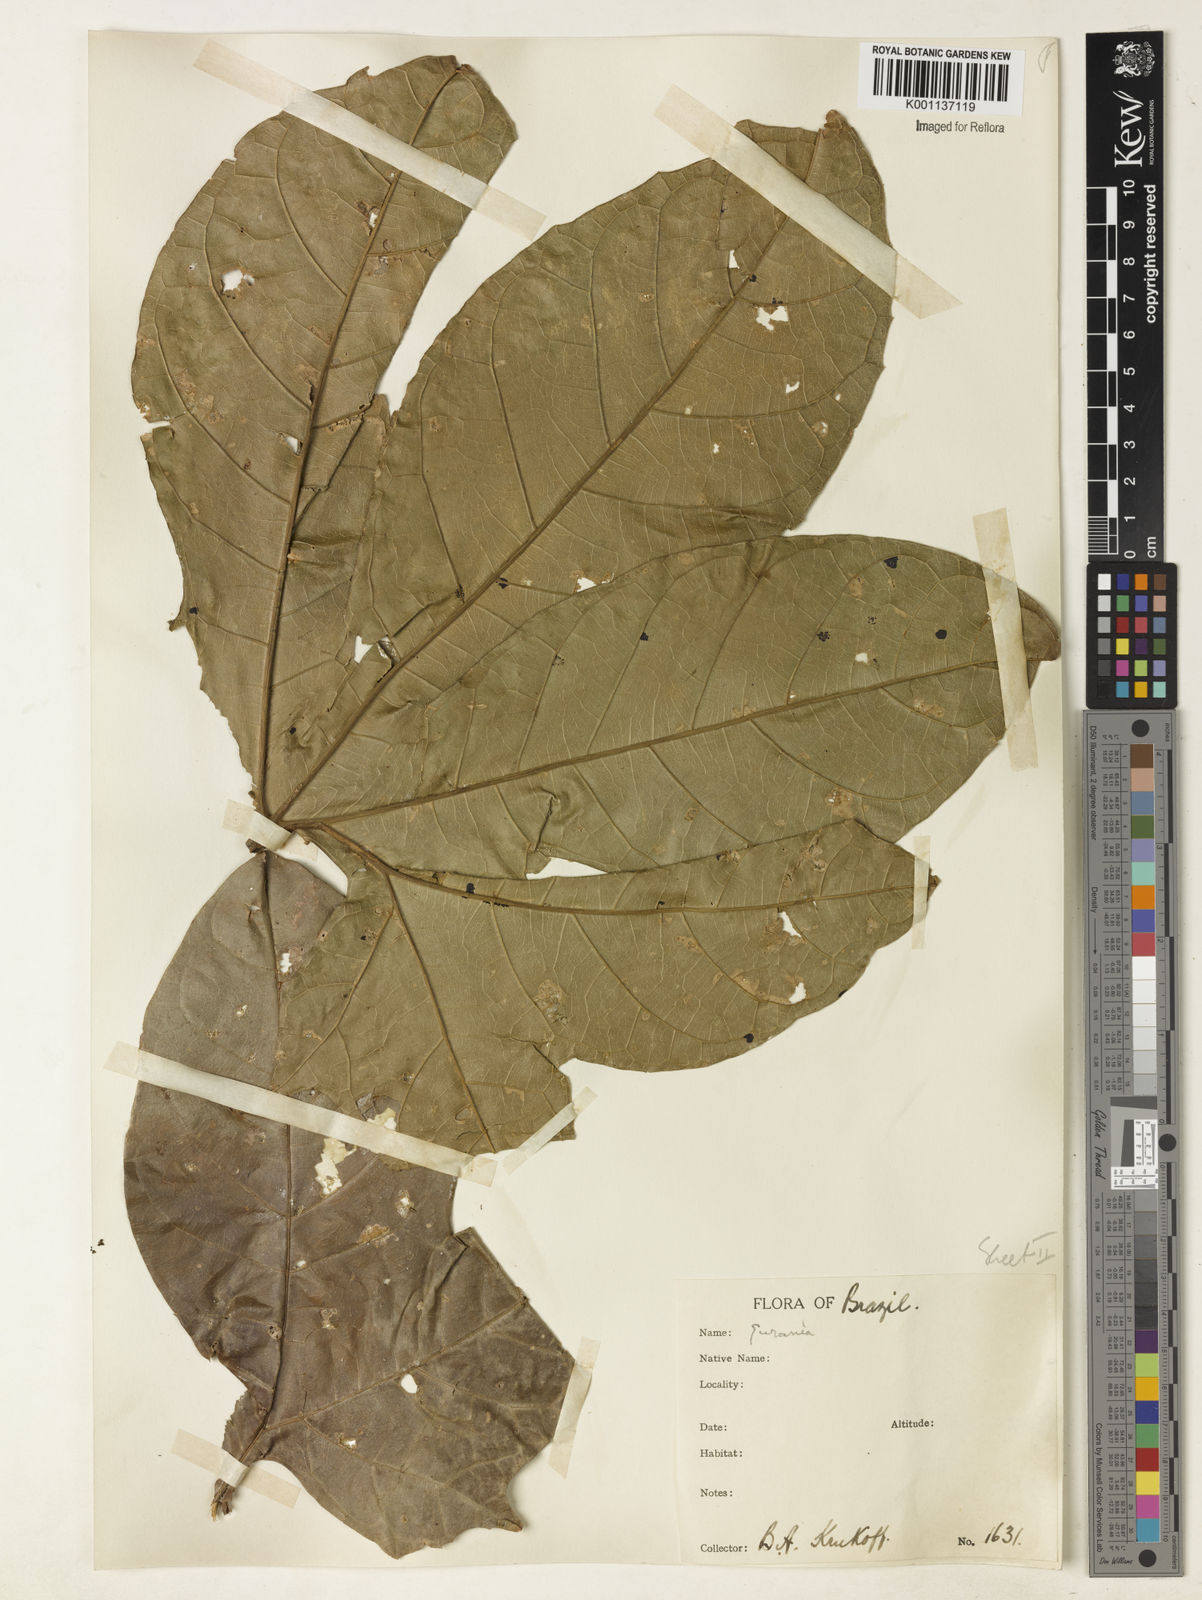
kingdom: Plantae
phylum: Tracheophyta
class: Magnoliopsida
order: Cucurbitales
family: Cucurbitaceae
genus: Cayaponia
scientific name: Cayaponia ophthalmica
